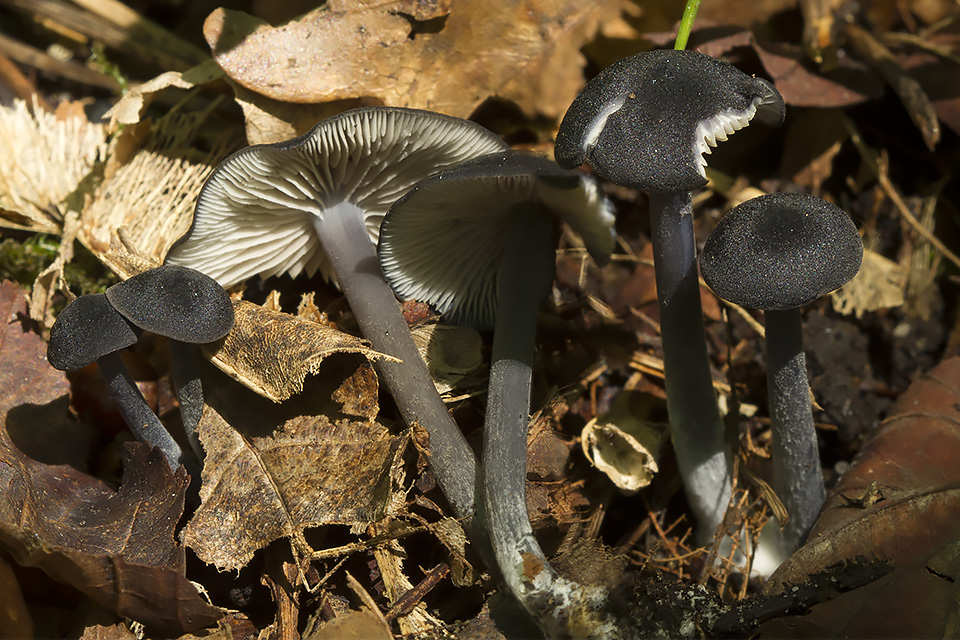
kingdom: Fungi
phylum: Basidiomycota
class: Agaricomycetes
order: Agaricales
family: Entolomataceae
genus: Entoloma
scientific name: Entoloma violaceoserrulatum
